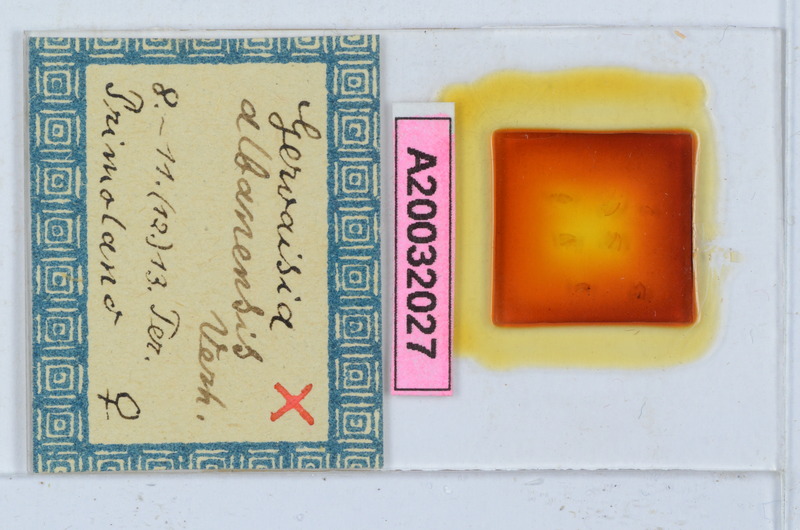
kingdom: Animalia
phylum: Arthropoda
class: Diplopoda
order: Glomerida
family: Glomeridae
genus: Trachysphaera
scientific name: Trachysphaera apenninorum
